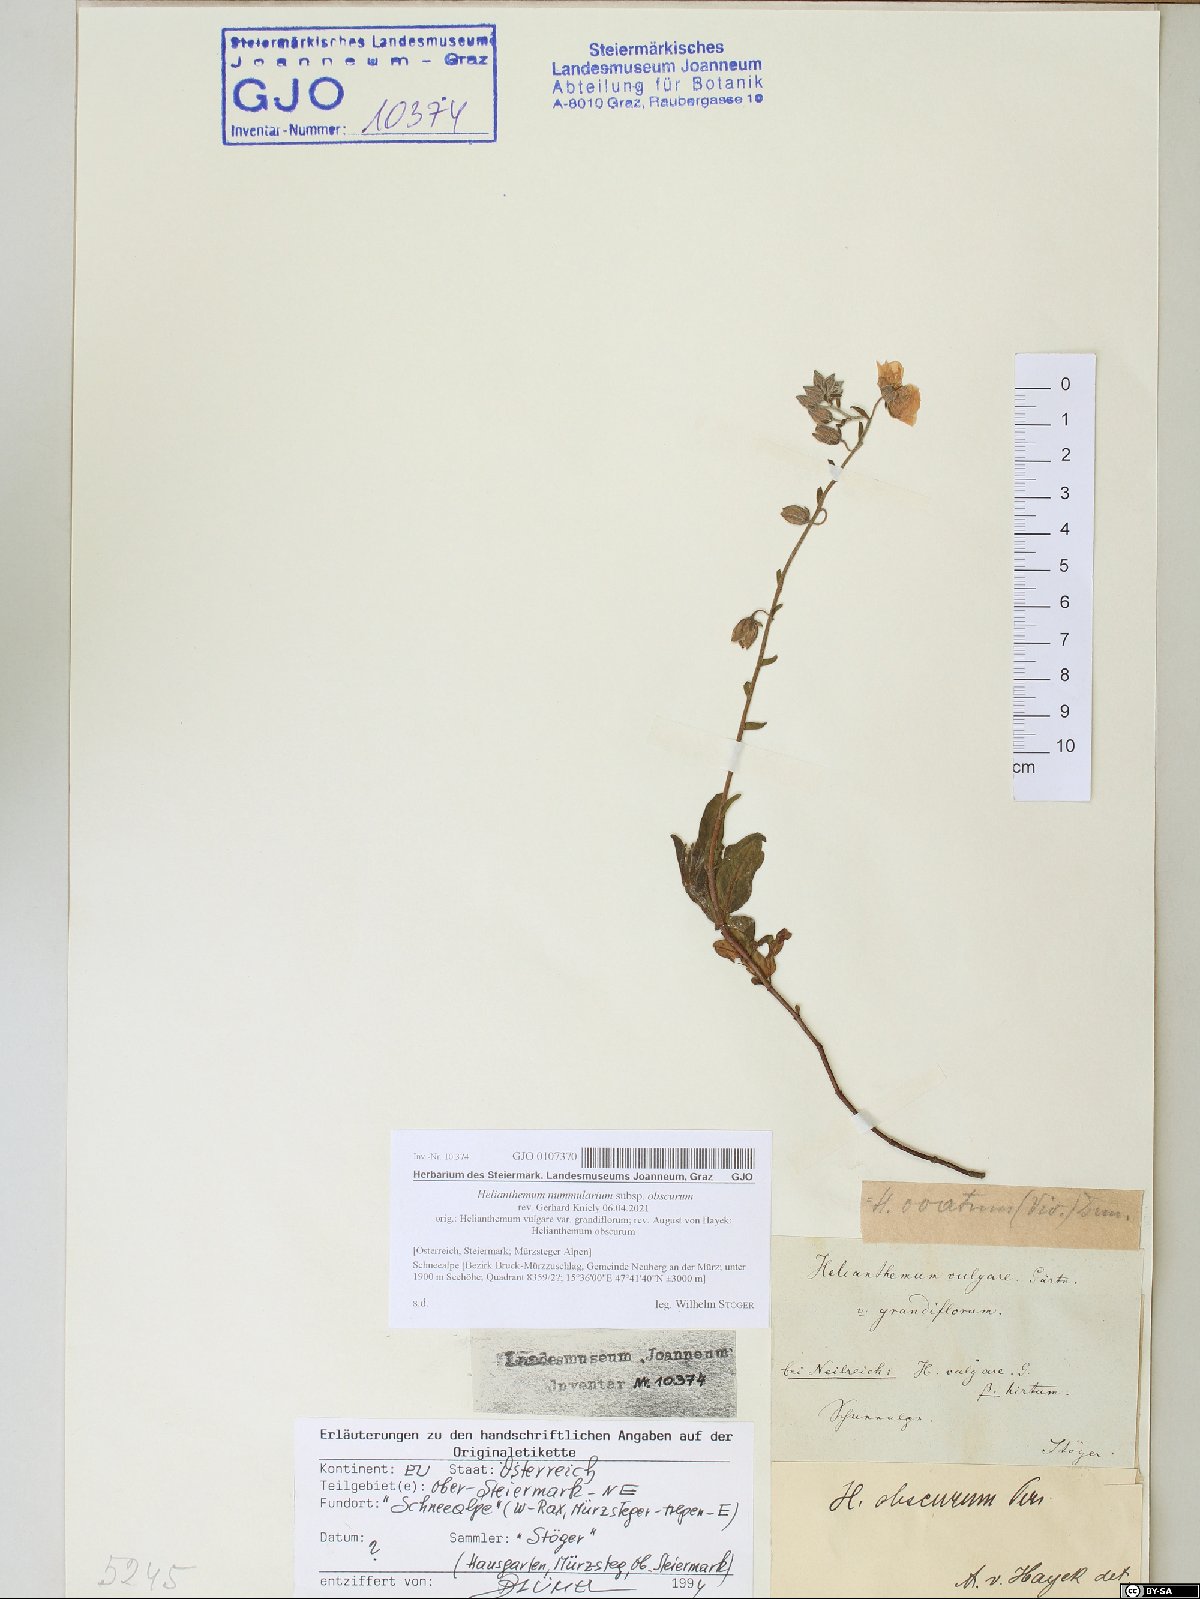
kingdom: Plantae
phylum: Tracheophyta
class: Magnoliopsida
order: Malvales
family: Cistaceae
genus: Helianthemum
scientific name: Helianthemum nummularium
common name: Common rock-rose
